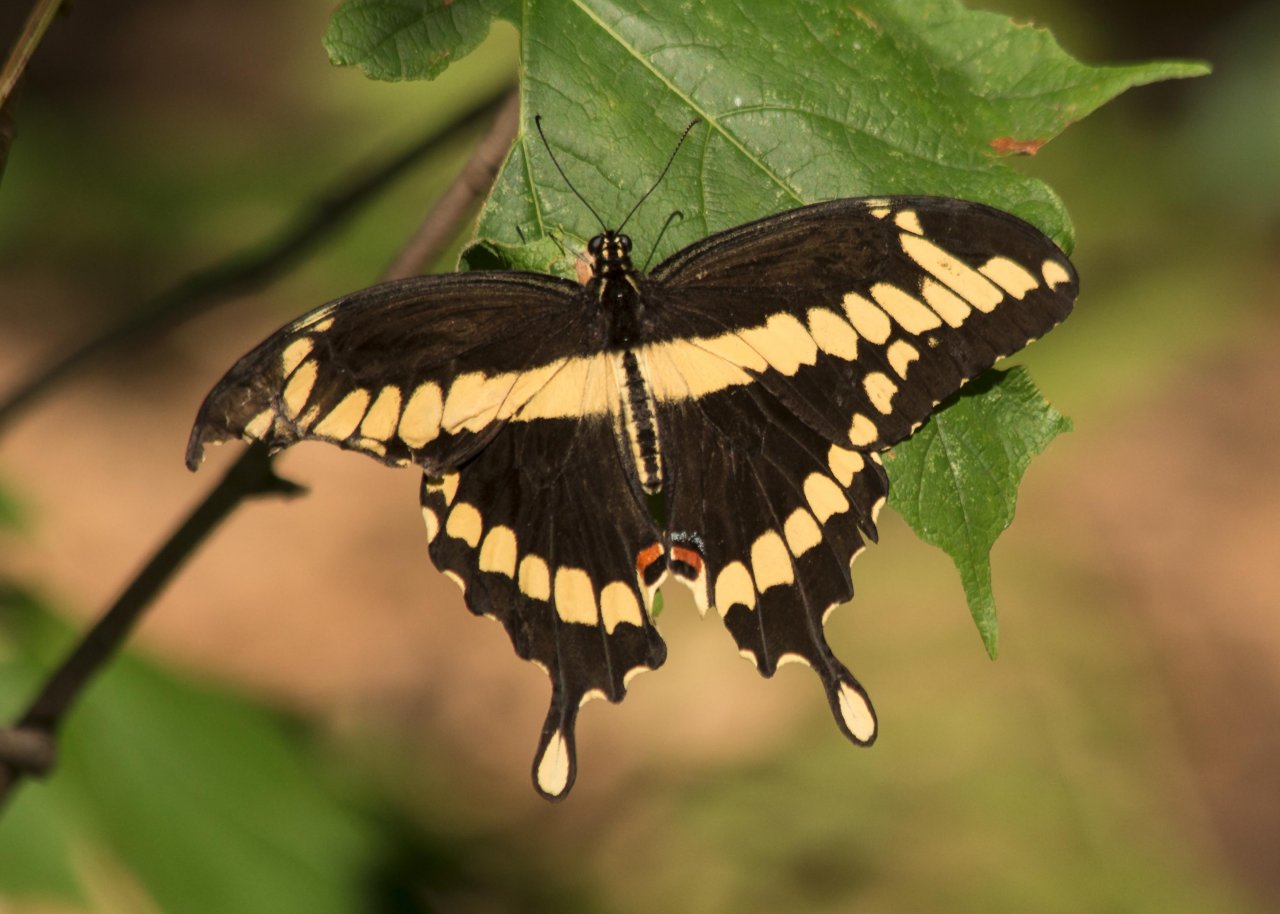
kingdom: Animalia
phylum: Arthropoda
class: Insecta
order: Lepidoptera
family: Papilionidae
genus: Papilio
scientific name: Papilio cresphontes
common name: Eastern Giant Swallowtail
